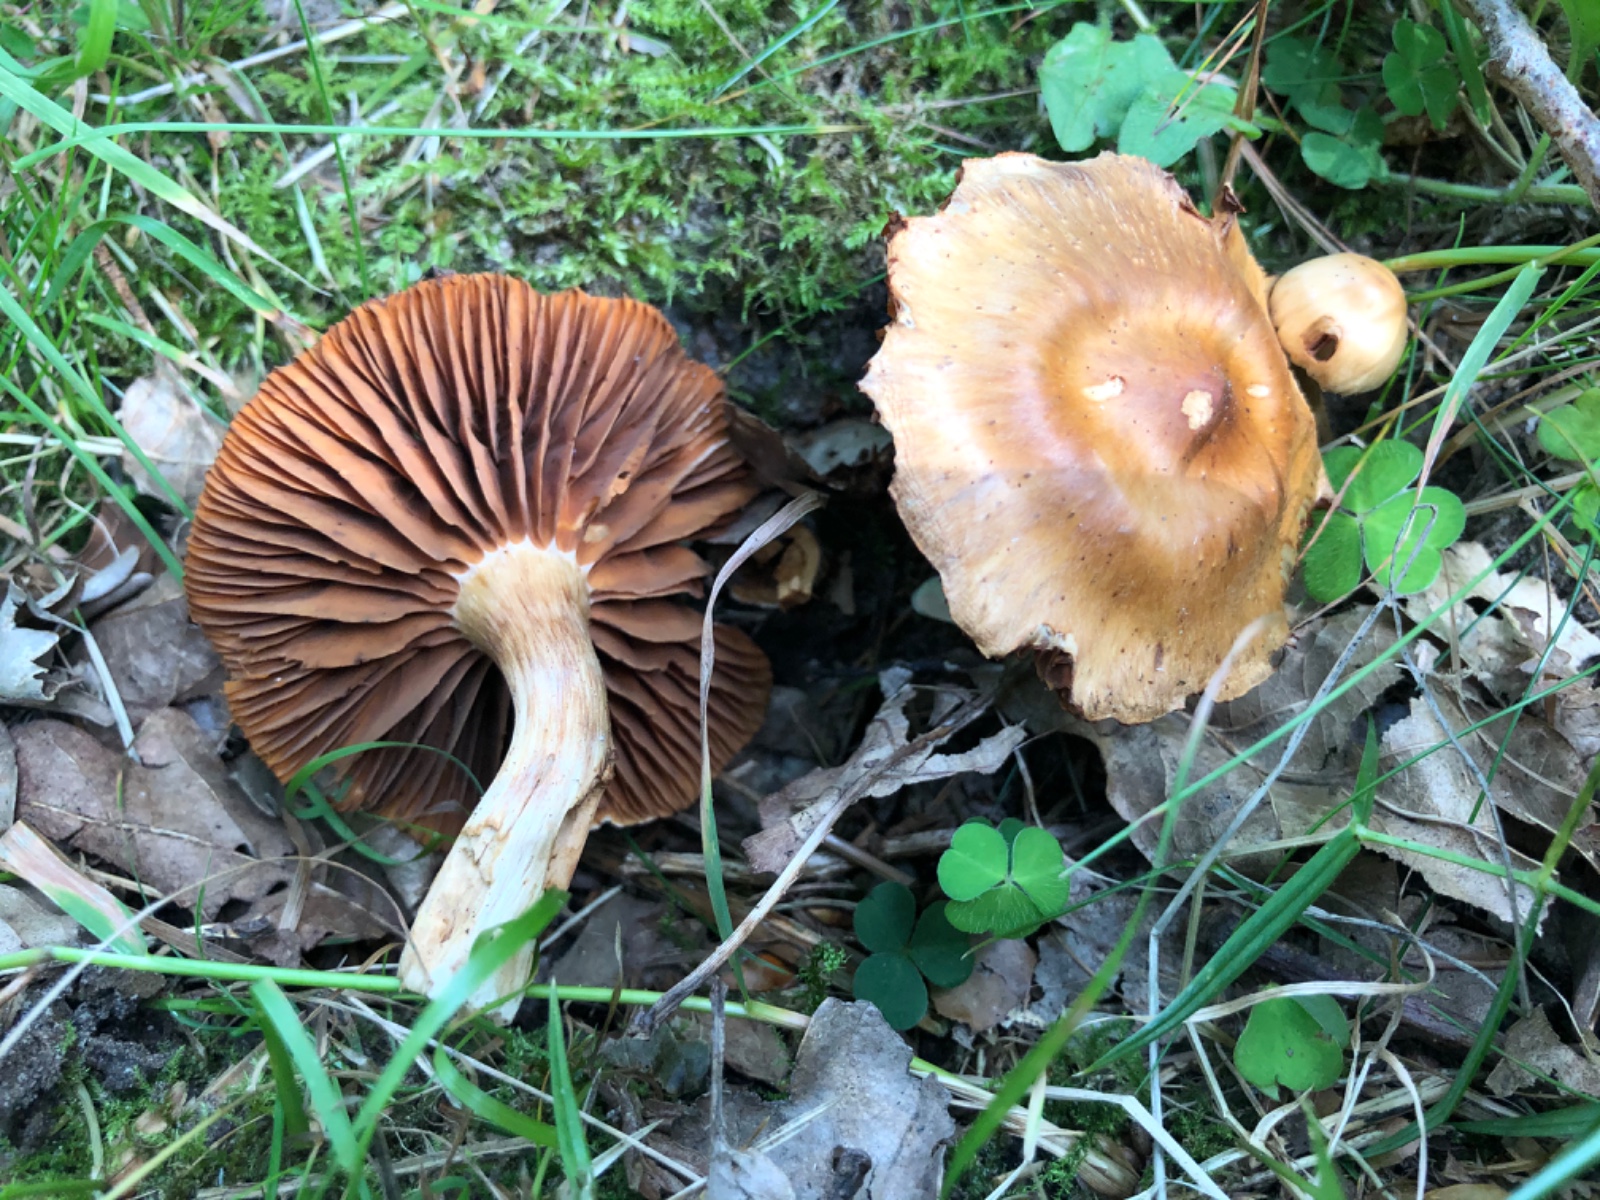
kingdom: Fungi
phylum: Basidiomycota
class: Agaricomycetes
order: Agaricales
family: Cortinariaceae
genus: Cortinarius
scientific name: Cortinarius hinnuleus
